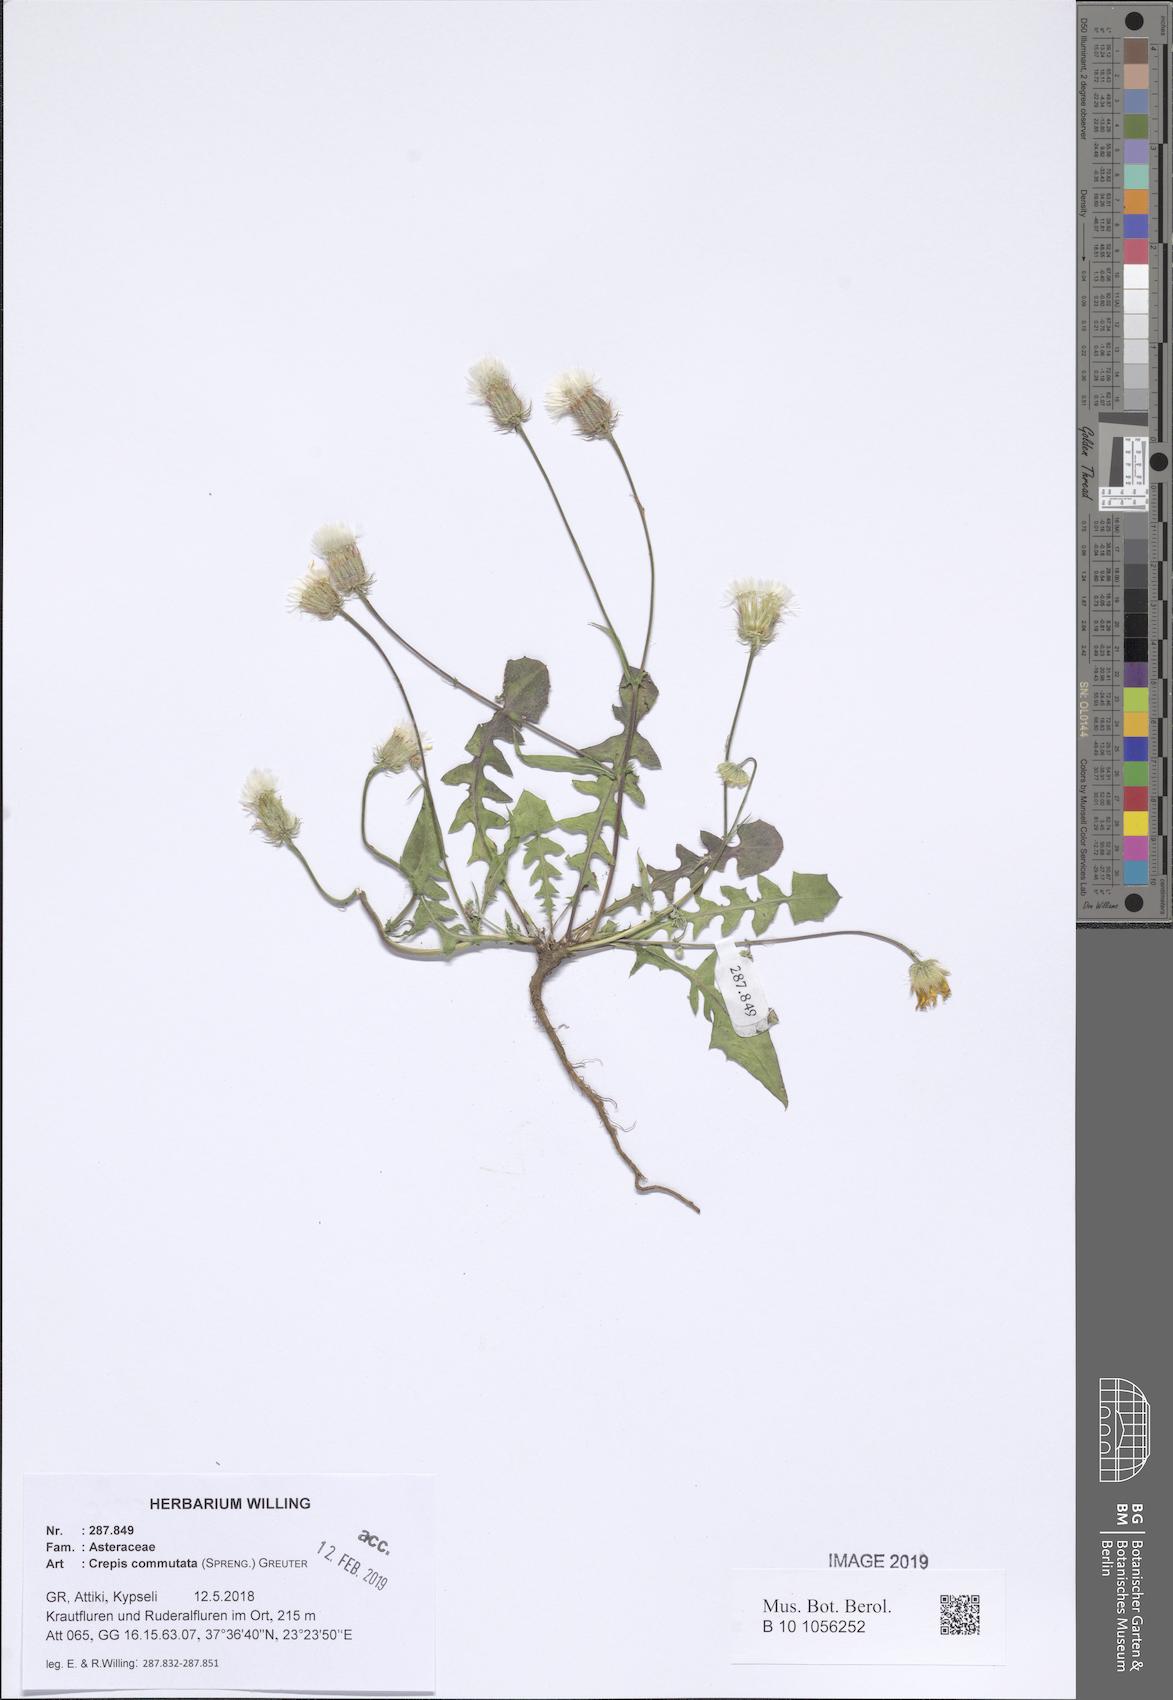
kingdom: Plantae
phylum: Tracheophyta
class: Magnoliopsida
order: Asterales
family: Asteraceae
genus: Crepis
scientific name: Crepis commutata
